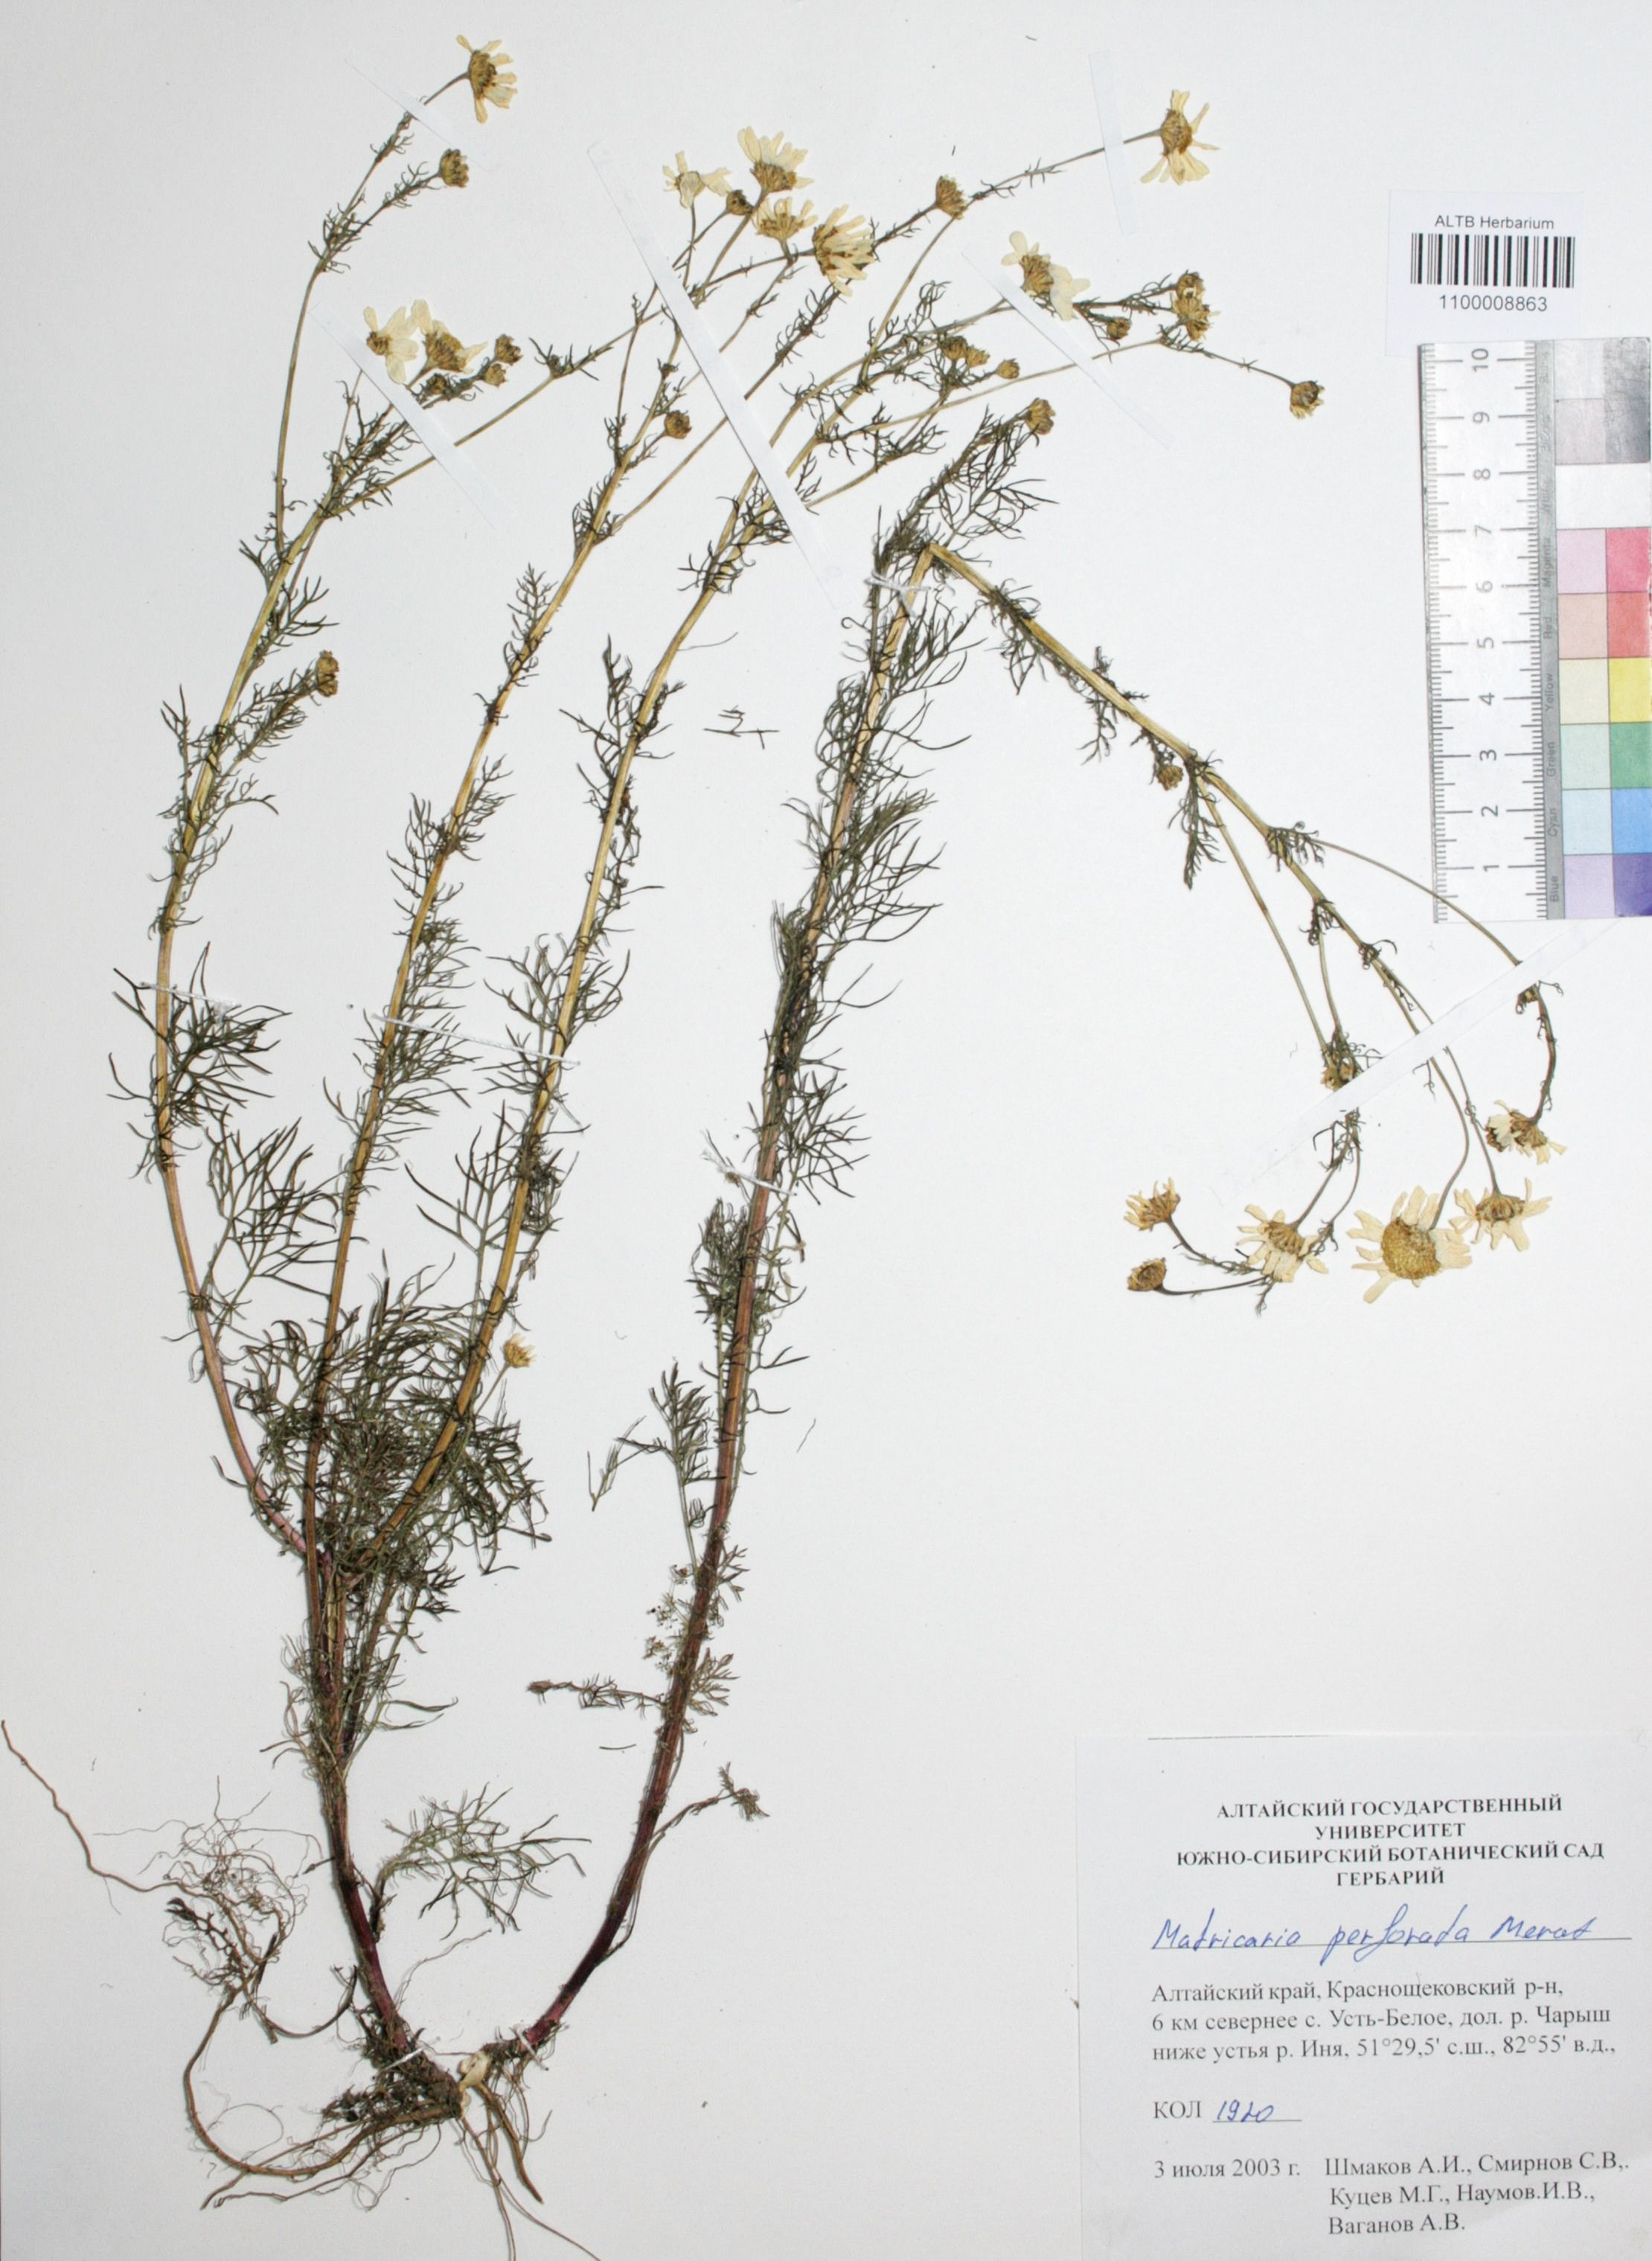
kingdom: Plantae
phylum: Tracheophyta
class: Magnoliopsida
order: Asterales
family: Asteraceae
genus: Tripleurospermum
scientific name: Tripleurospermum inodorum
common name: Scentless mayweed
